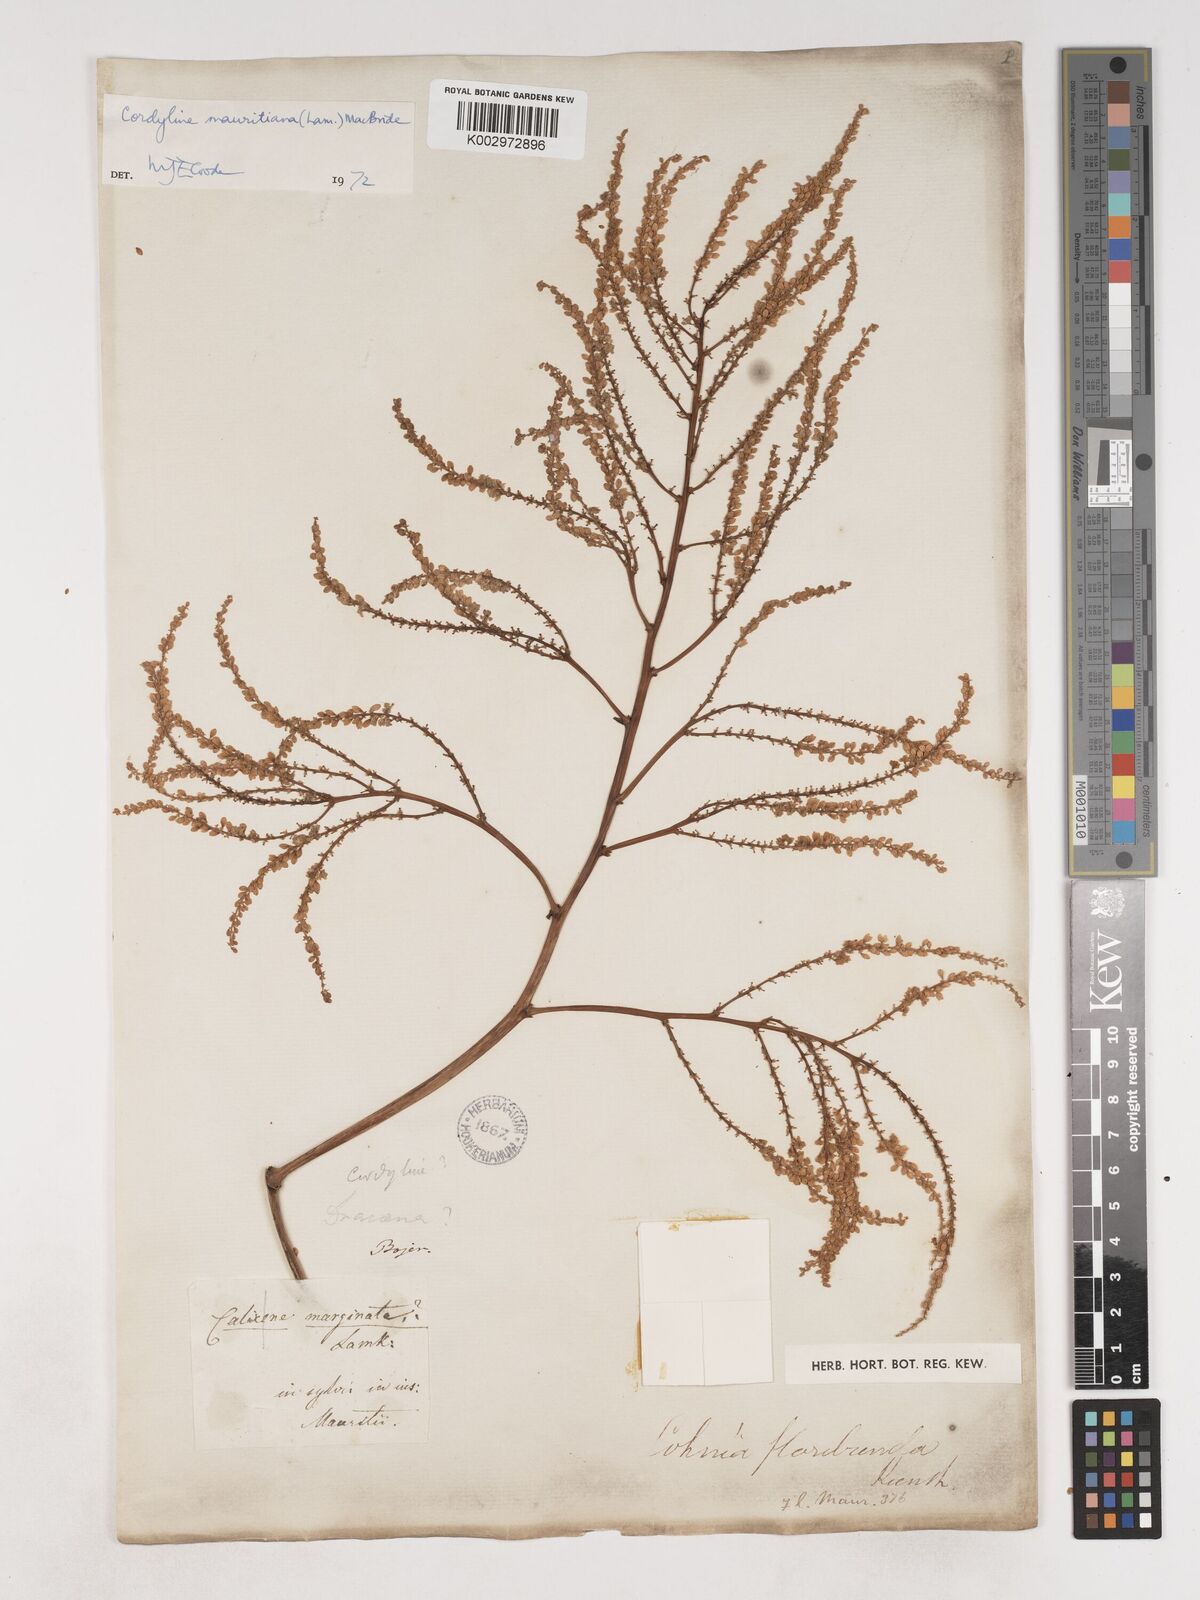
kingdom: Plantae
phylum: Tracheophyta
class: Liliopsida
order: Asparagales
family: Asparagaceae
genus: Cordyline
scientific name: Cordyline mauritiana
